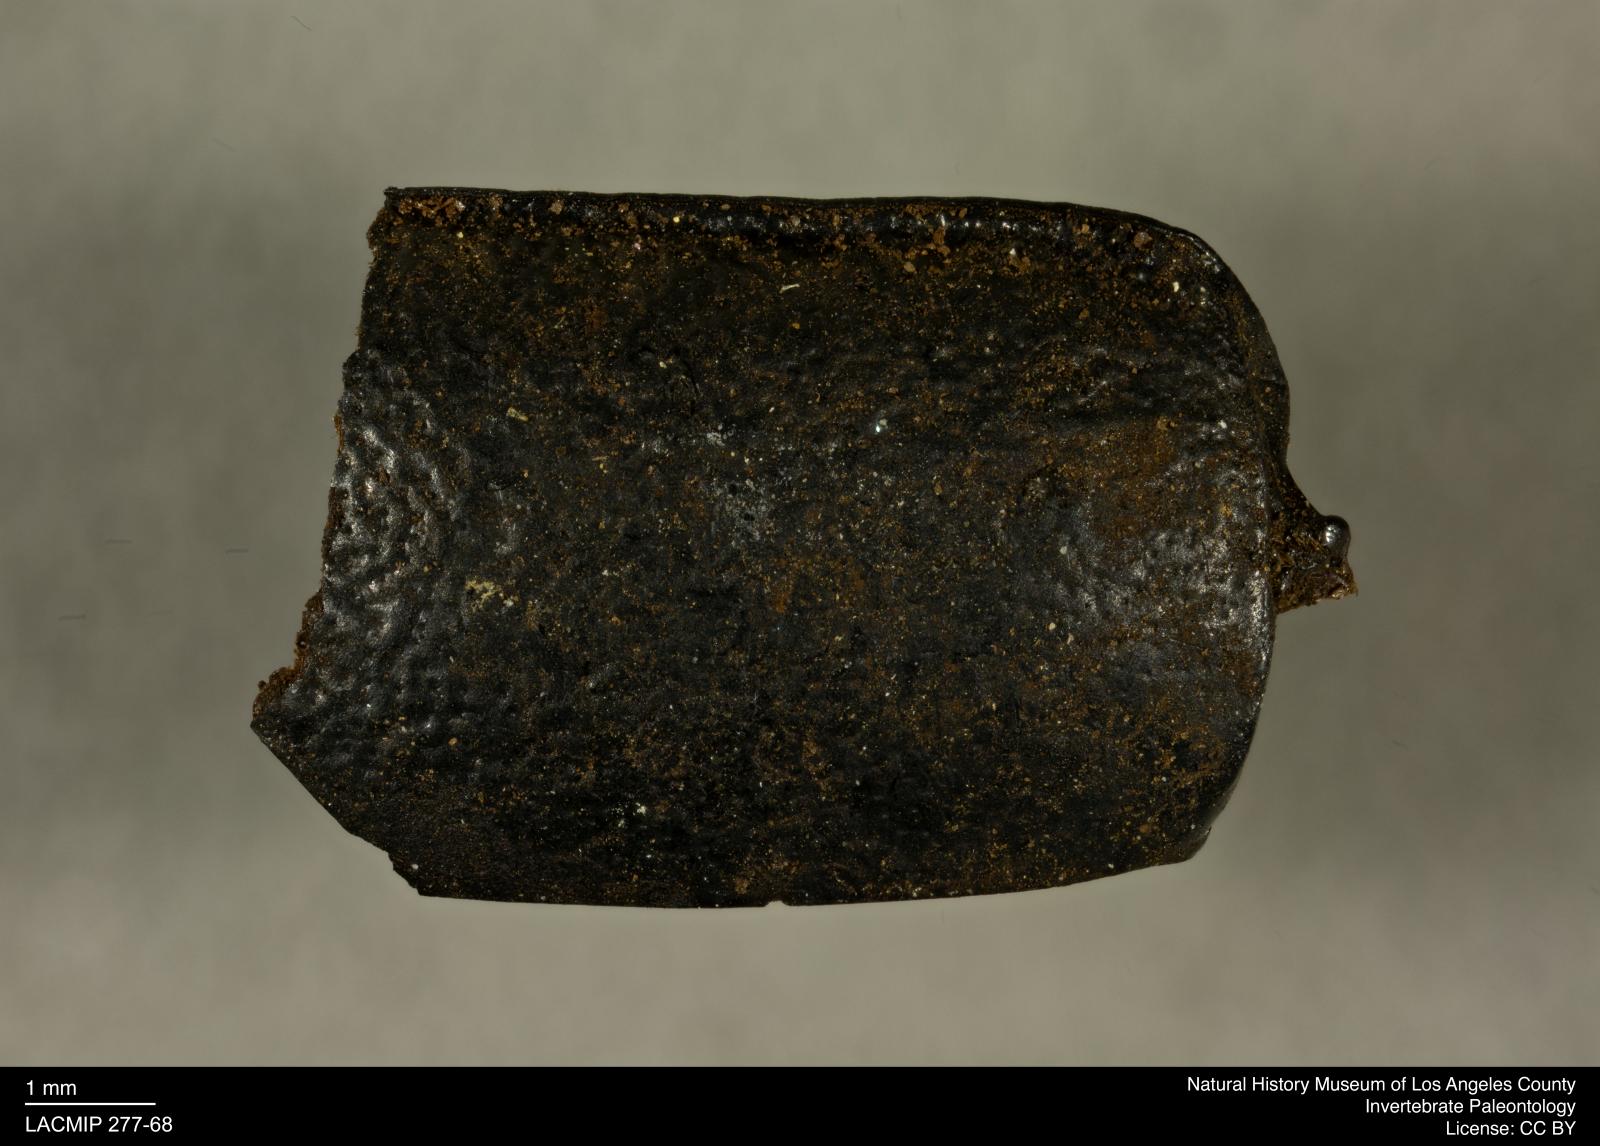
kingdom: Animalia
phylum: Arthropoda
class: Insecta
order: Coleoptera
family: Tenebrionidae
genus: Coniontis
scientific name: Coniontis abdominalis
